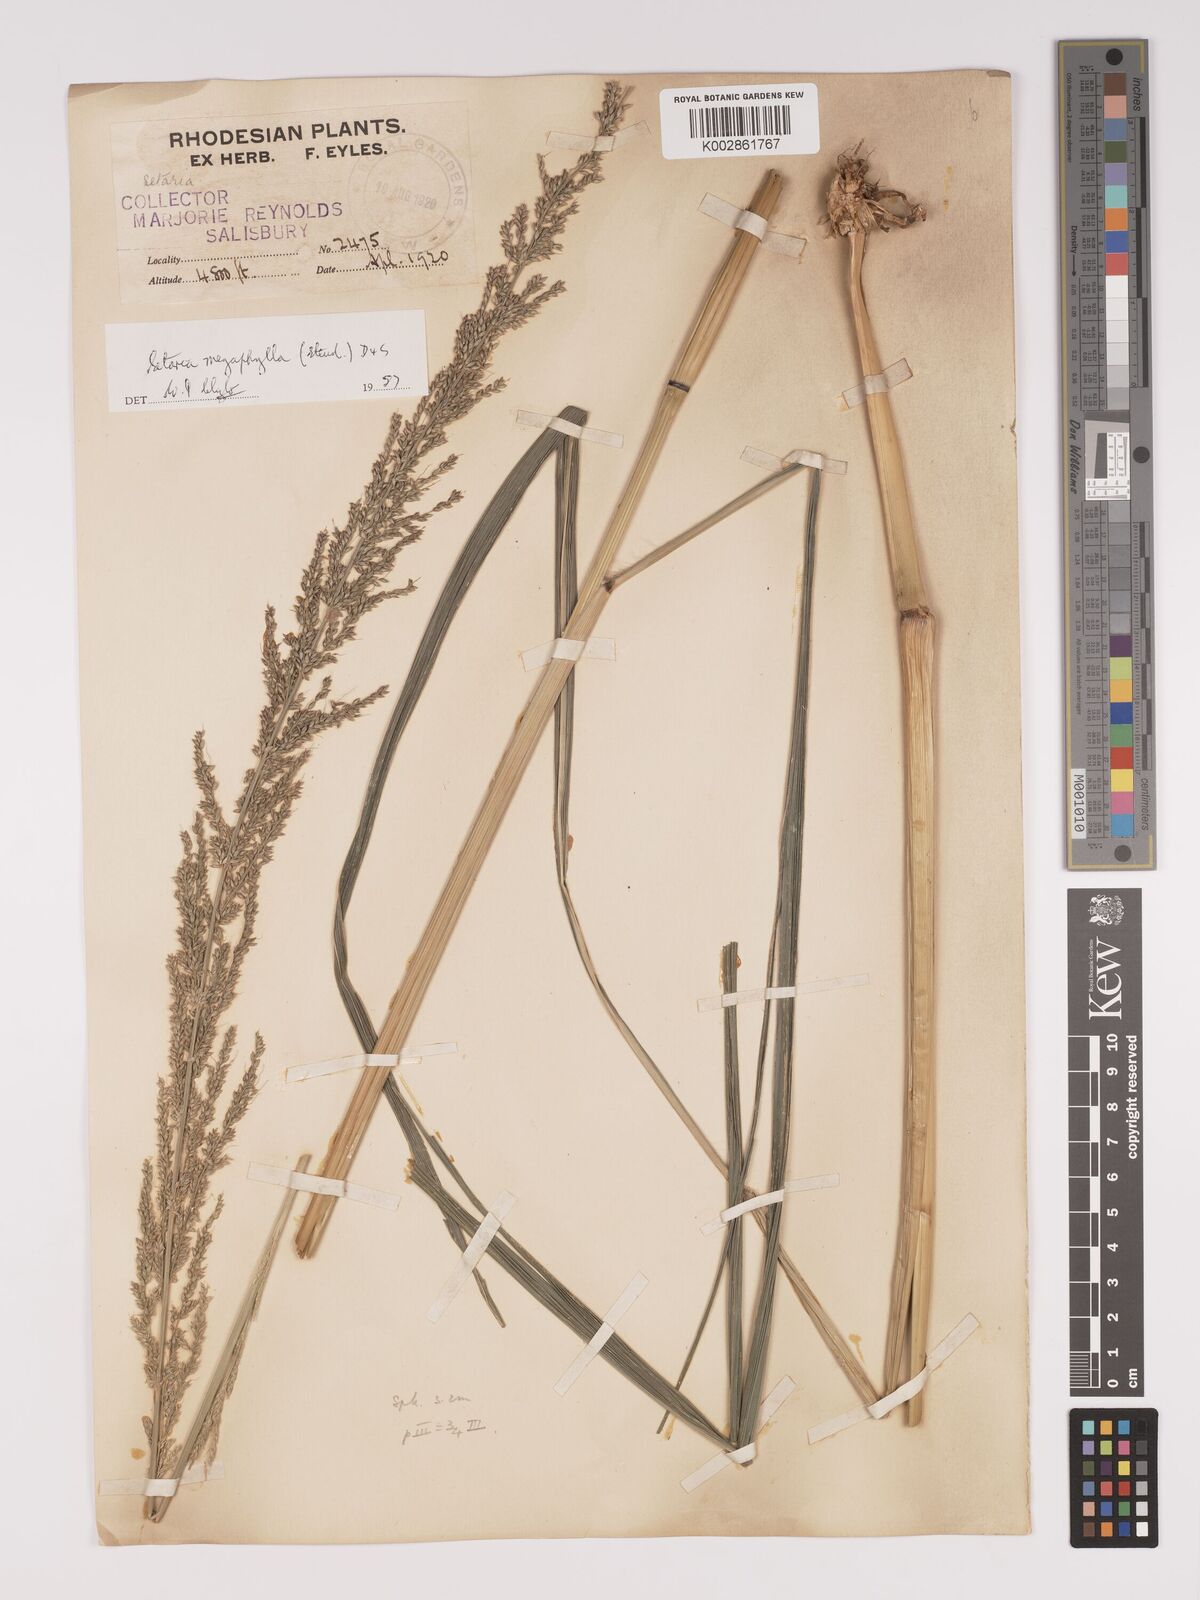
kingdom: Plantae
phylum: Tracheophyta
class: Liliopsida
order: Poales
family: Poaceae
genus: Setaria
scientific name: Setaria megaphylla
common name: Bigleaf bristlegrass
